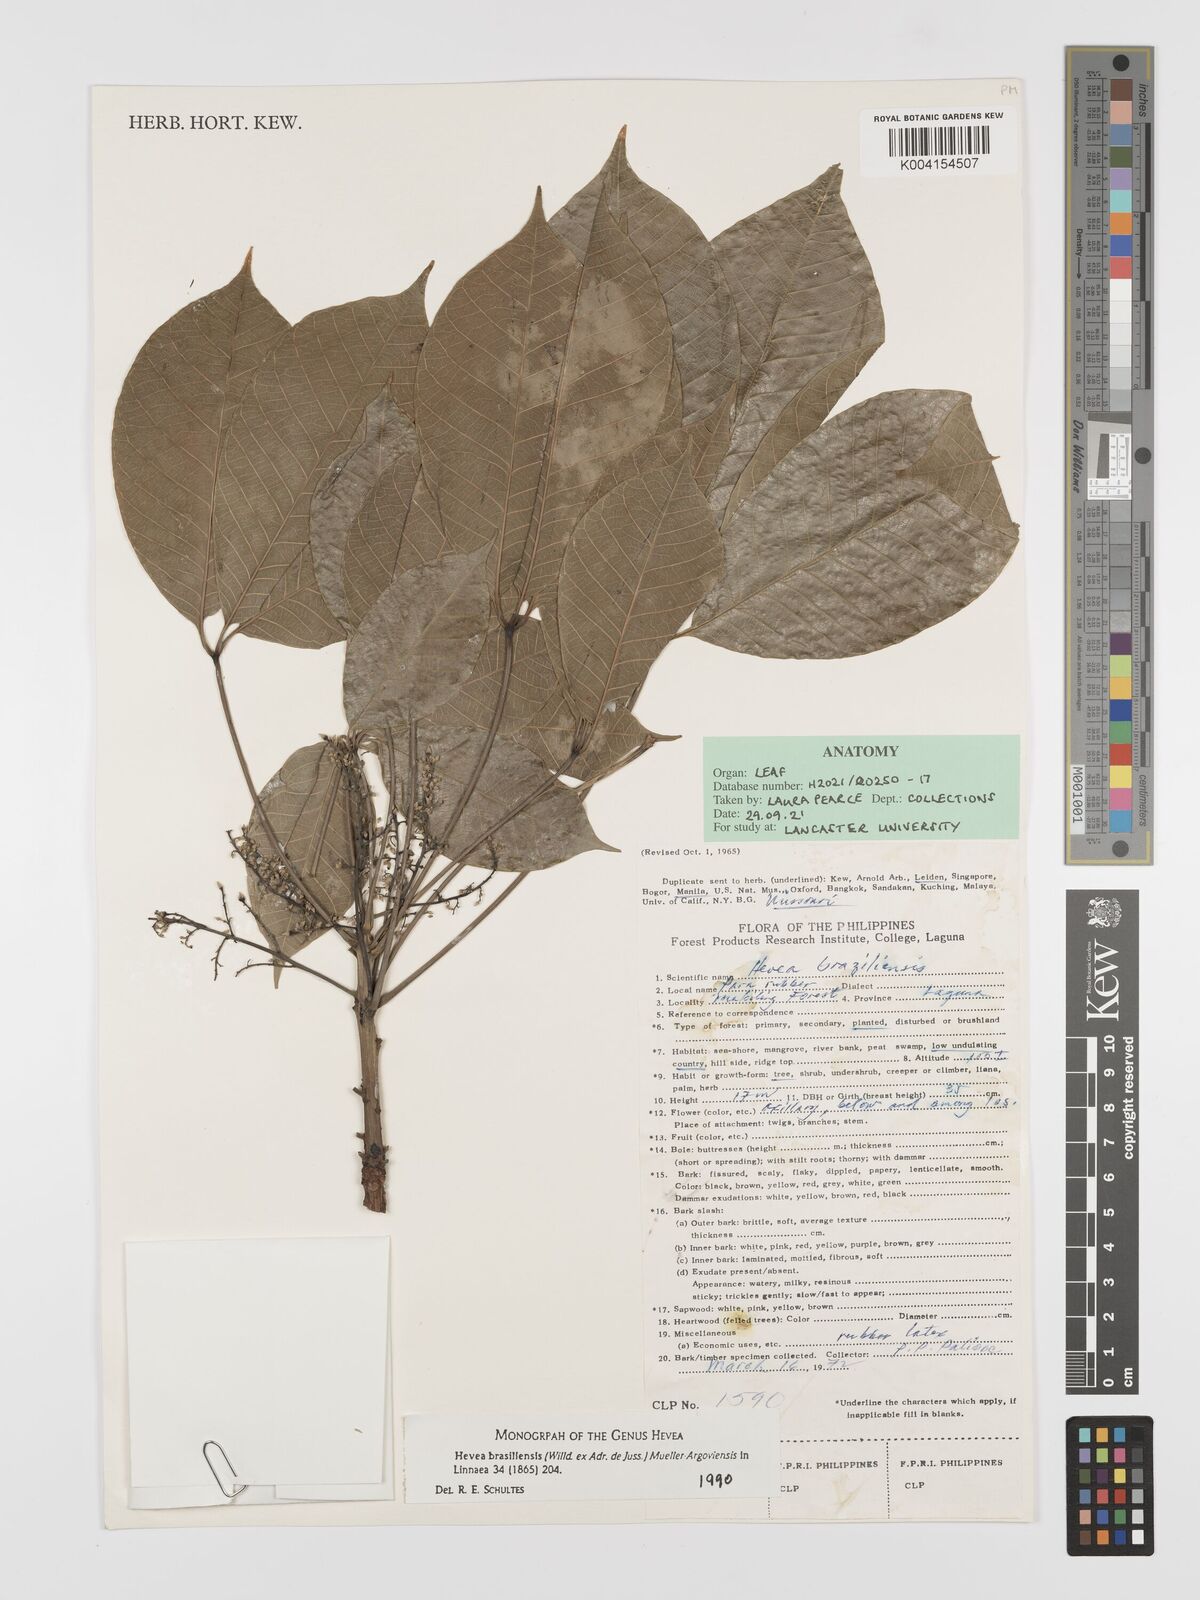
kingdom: Plantae
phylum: Tracheophyta
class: Magnoliopsida
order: Malpighiales
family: Euphorbiaceae
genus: Hevea
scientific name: Hevea brasiliensis
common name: Natural rubber
